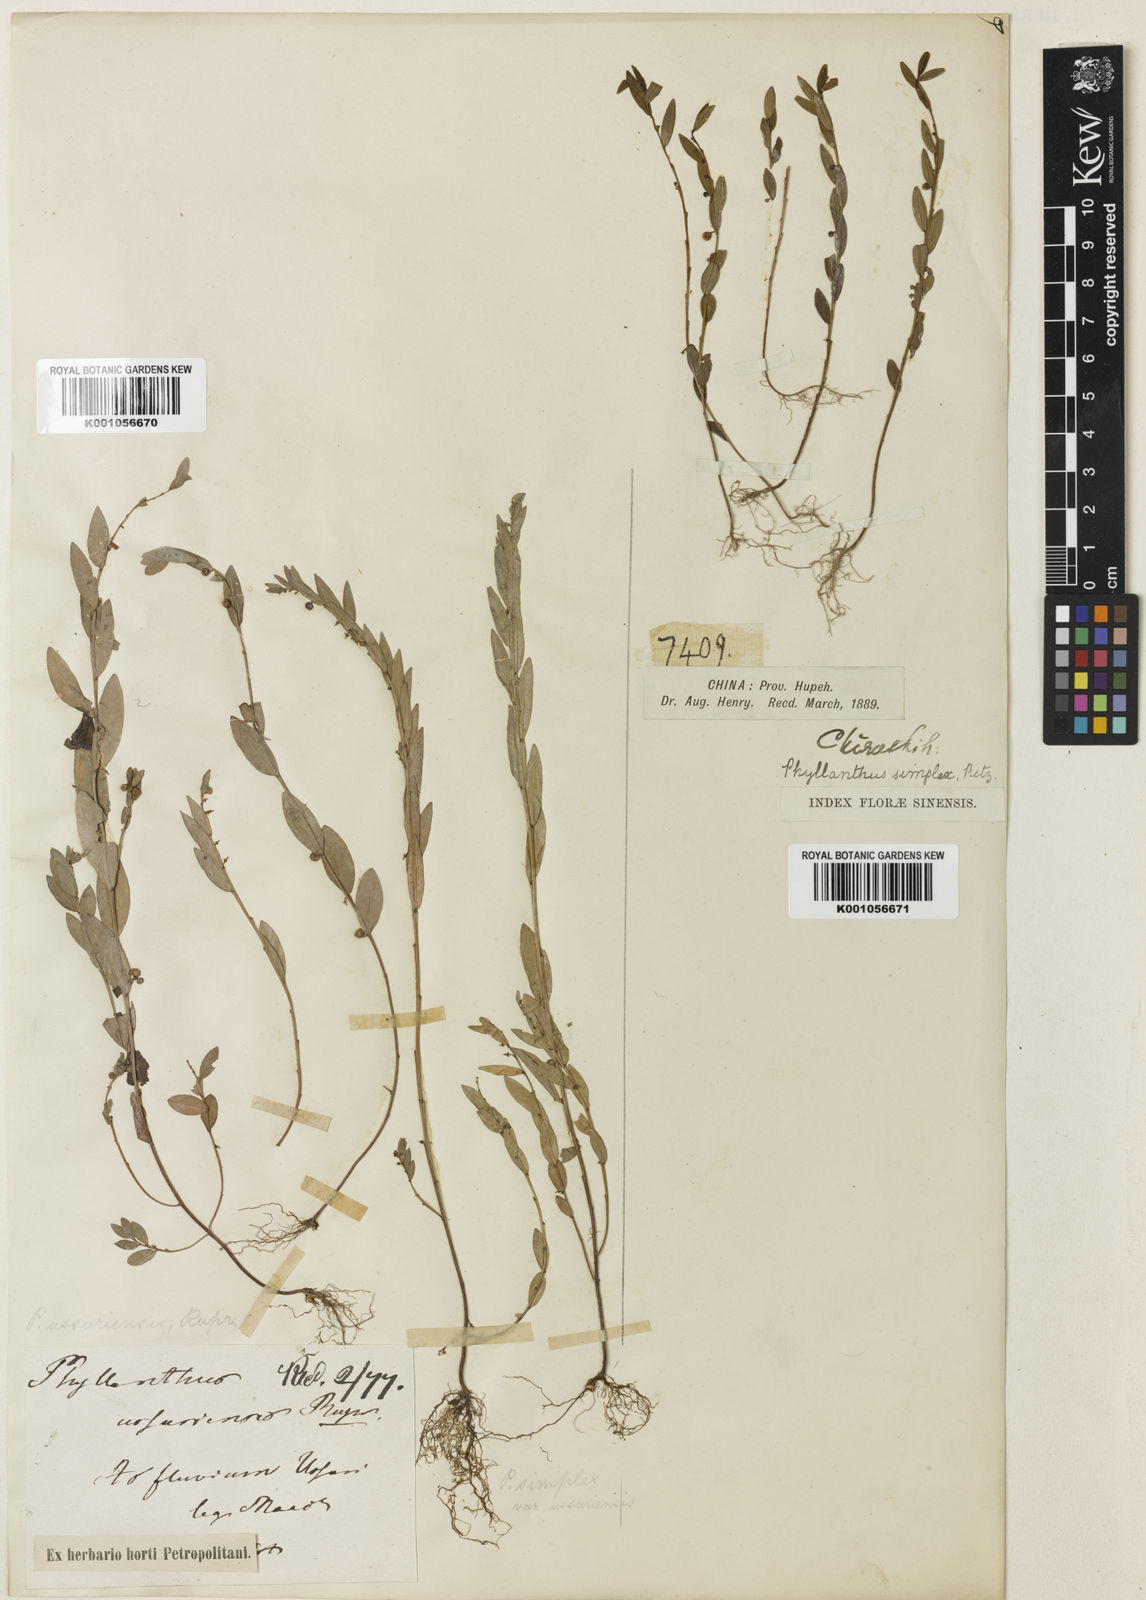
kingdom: Plantae
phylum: Tracheophyta
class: Magnoliopsida
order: Malpighiales
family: Phyllanthaceae
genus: Phyllanthus
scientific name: Phyllanthus virgatus
